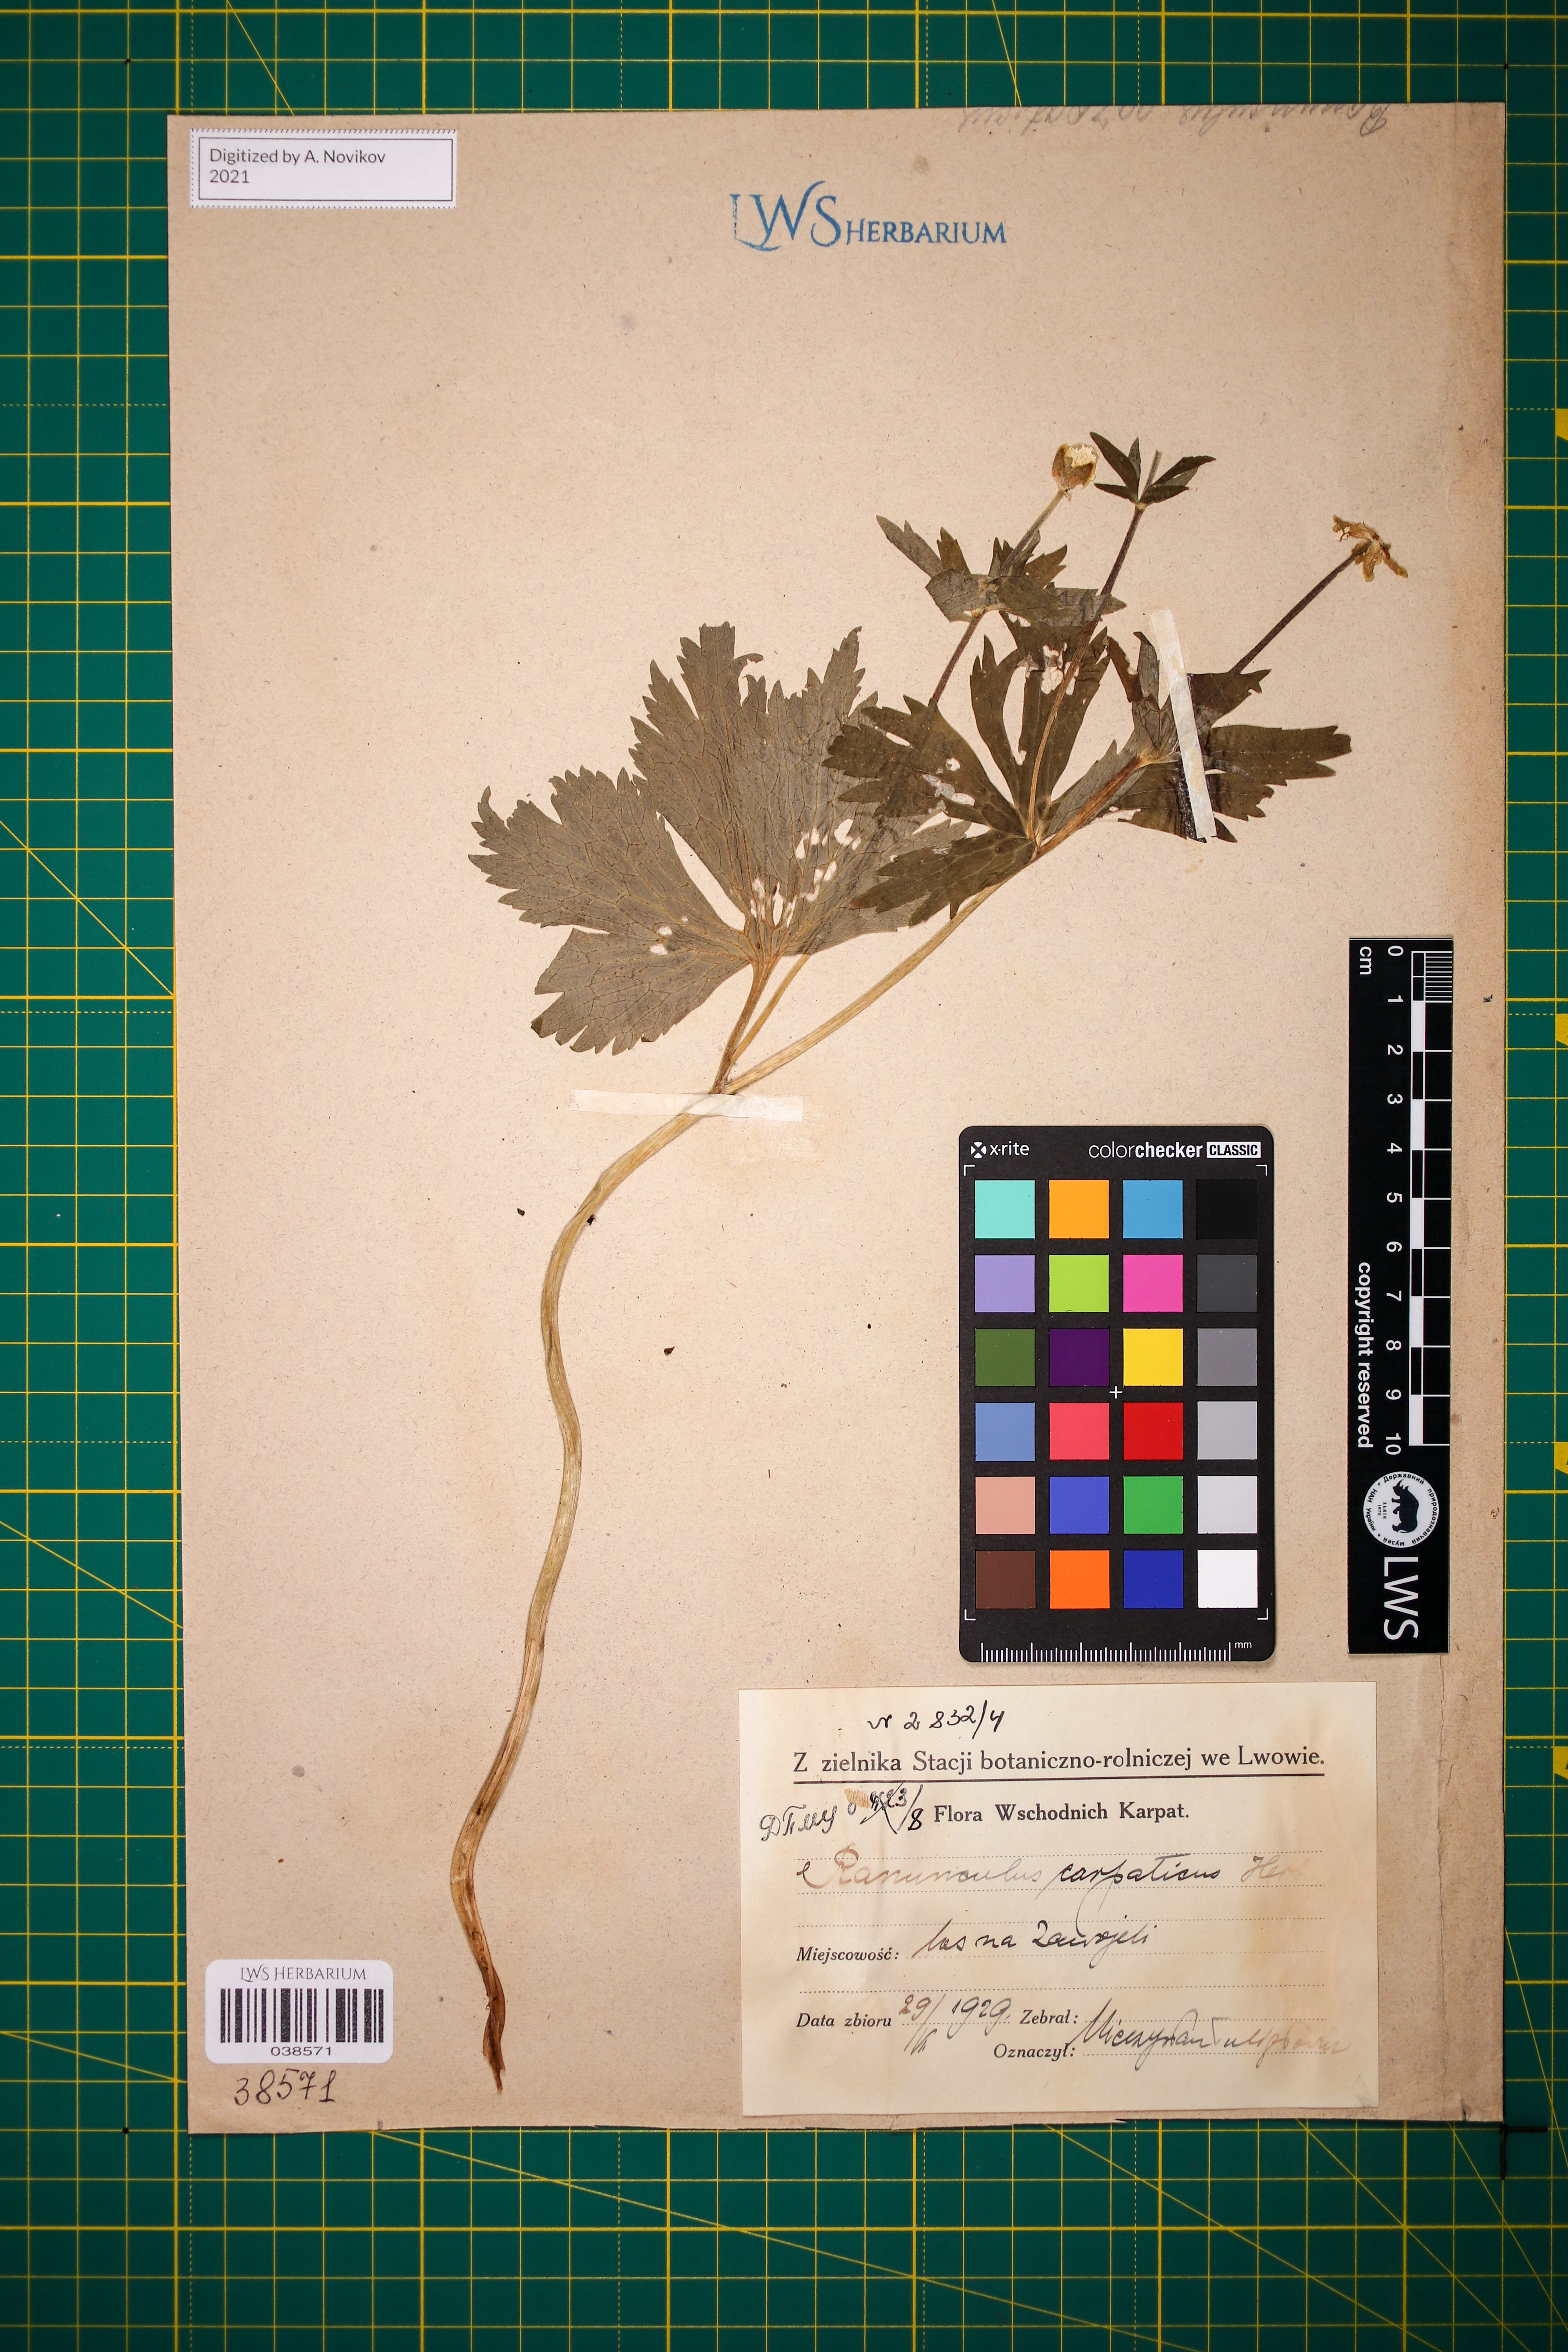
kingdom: Plantae
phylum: Tracheophyta
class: Magnoliopsida
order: Ranunculales
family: Ranunculaceae
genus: Ranunculus
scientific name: Ranunculus carpaticus
